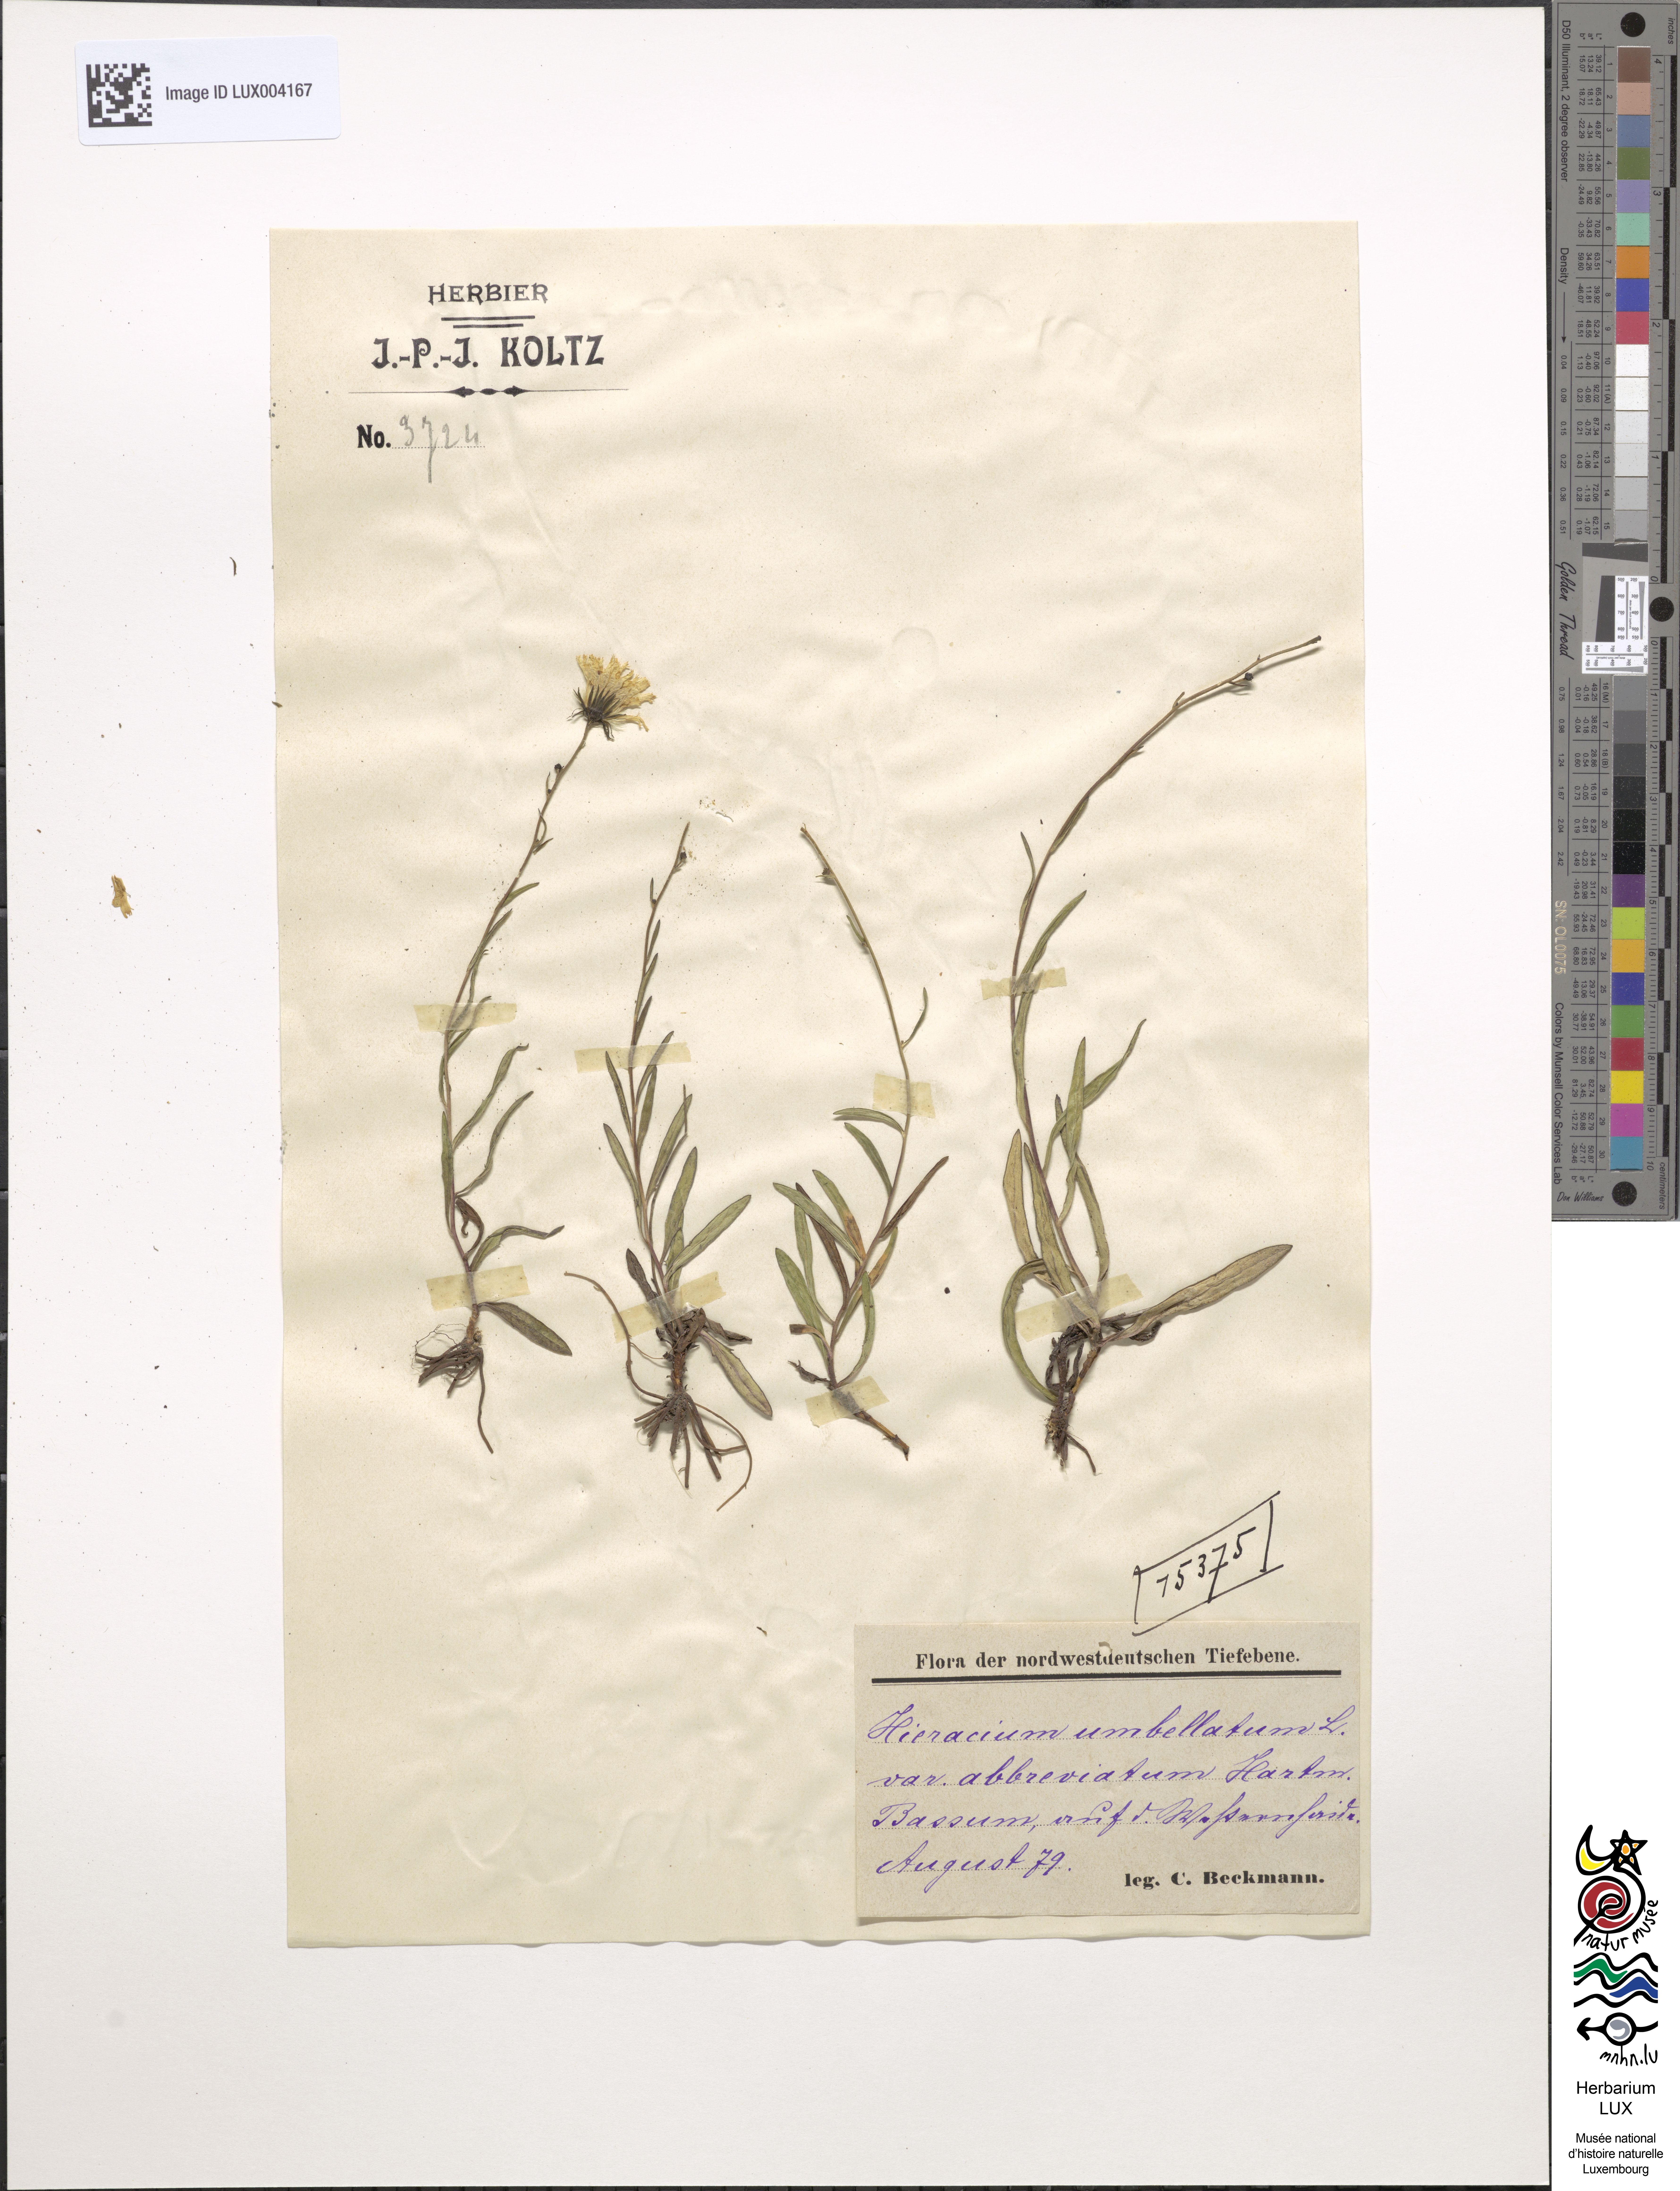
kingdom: Plantae
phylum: Tracheophyta
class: Magnoliopsida
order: Asterales
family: Asteraceae
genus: Hieracium
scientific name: Hieracium umbellatum
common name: Northern hawkweed
